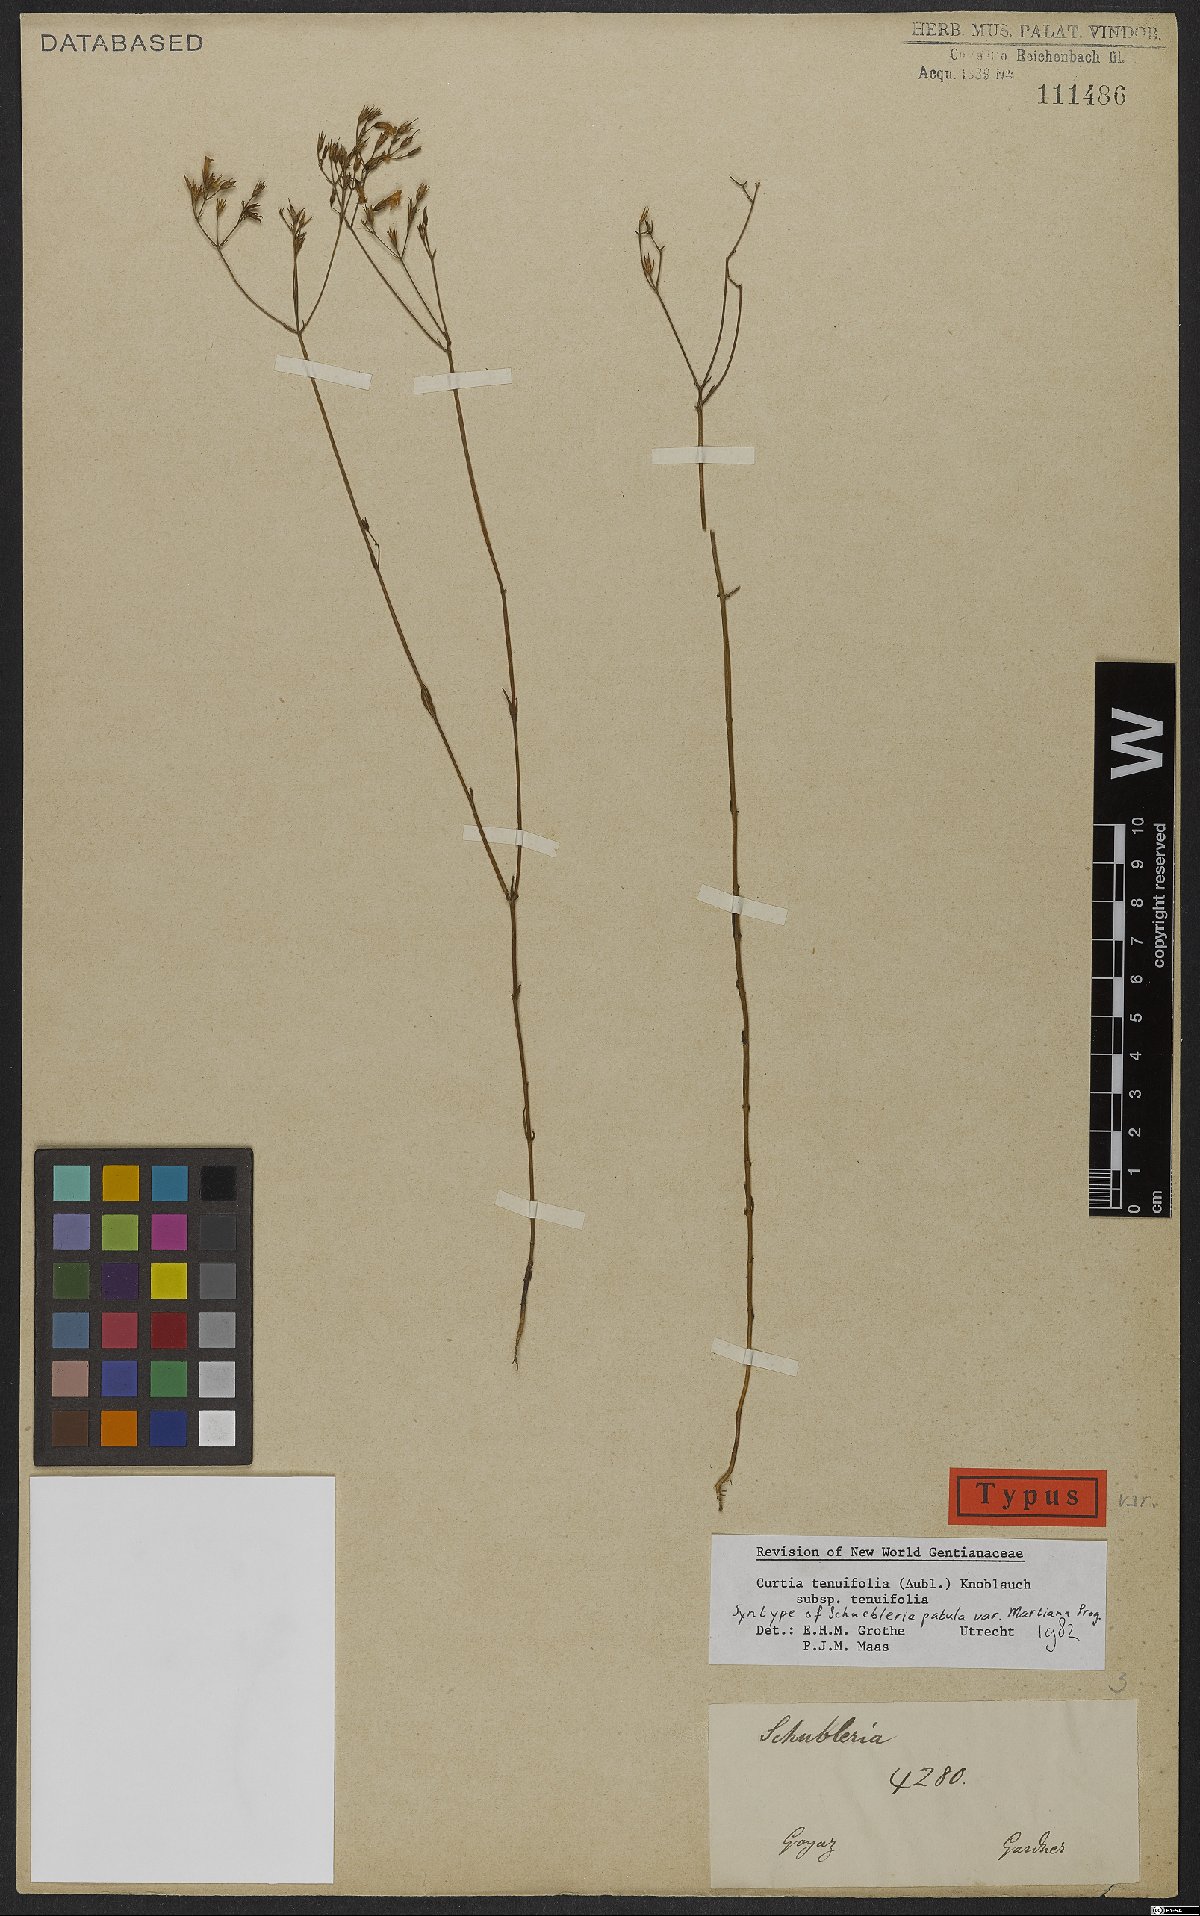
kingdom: Plantae
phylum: Tracheophyta
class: Magnoliopsida
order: Gentianales
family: Gentianaceae
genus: Curtia
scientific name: Curtia tenuifolia
